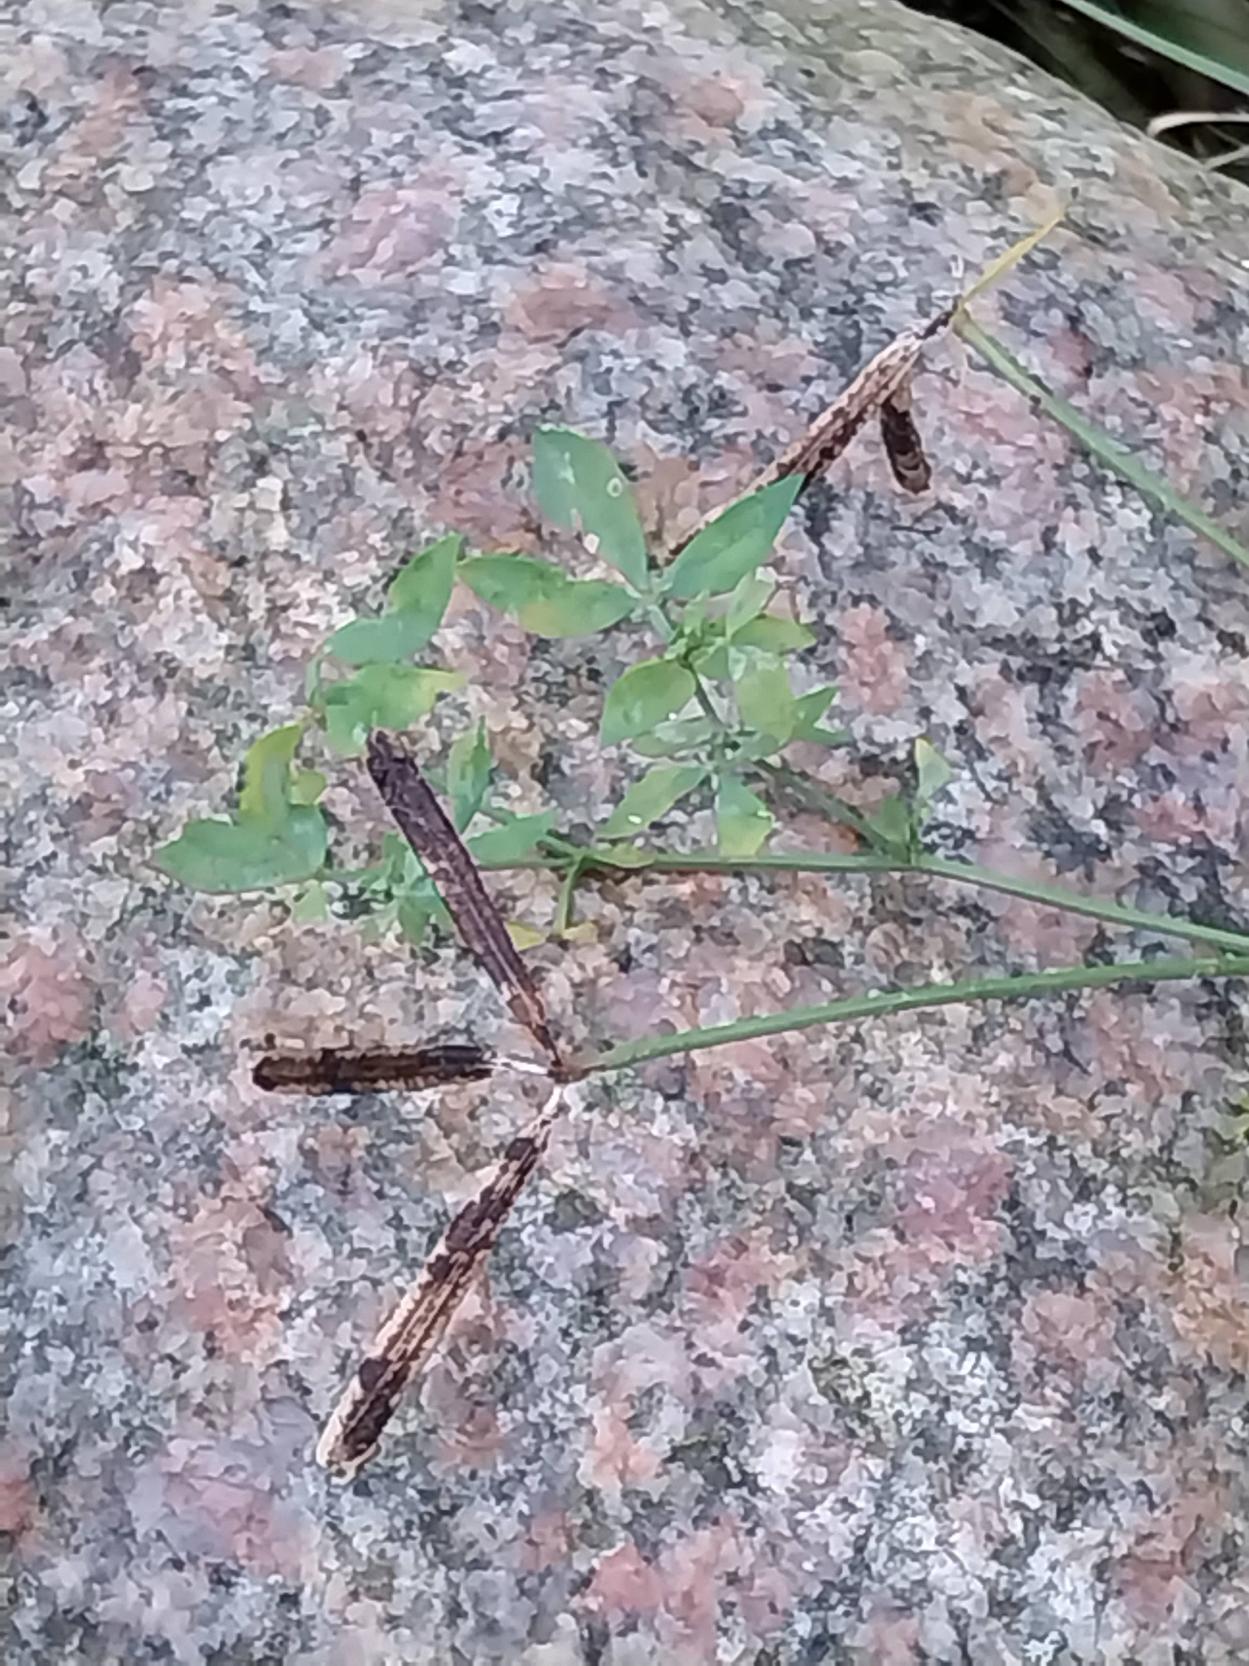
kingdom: Plantae
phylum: Tracheophyta
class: Magnoliopsida
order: Fabales
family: Fabaceae
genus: Lotus
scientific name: Lotus corniculatus
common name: Almindelig kællingetand
